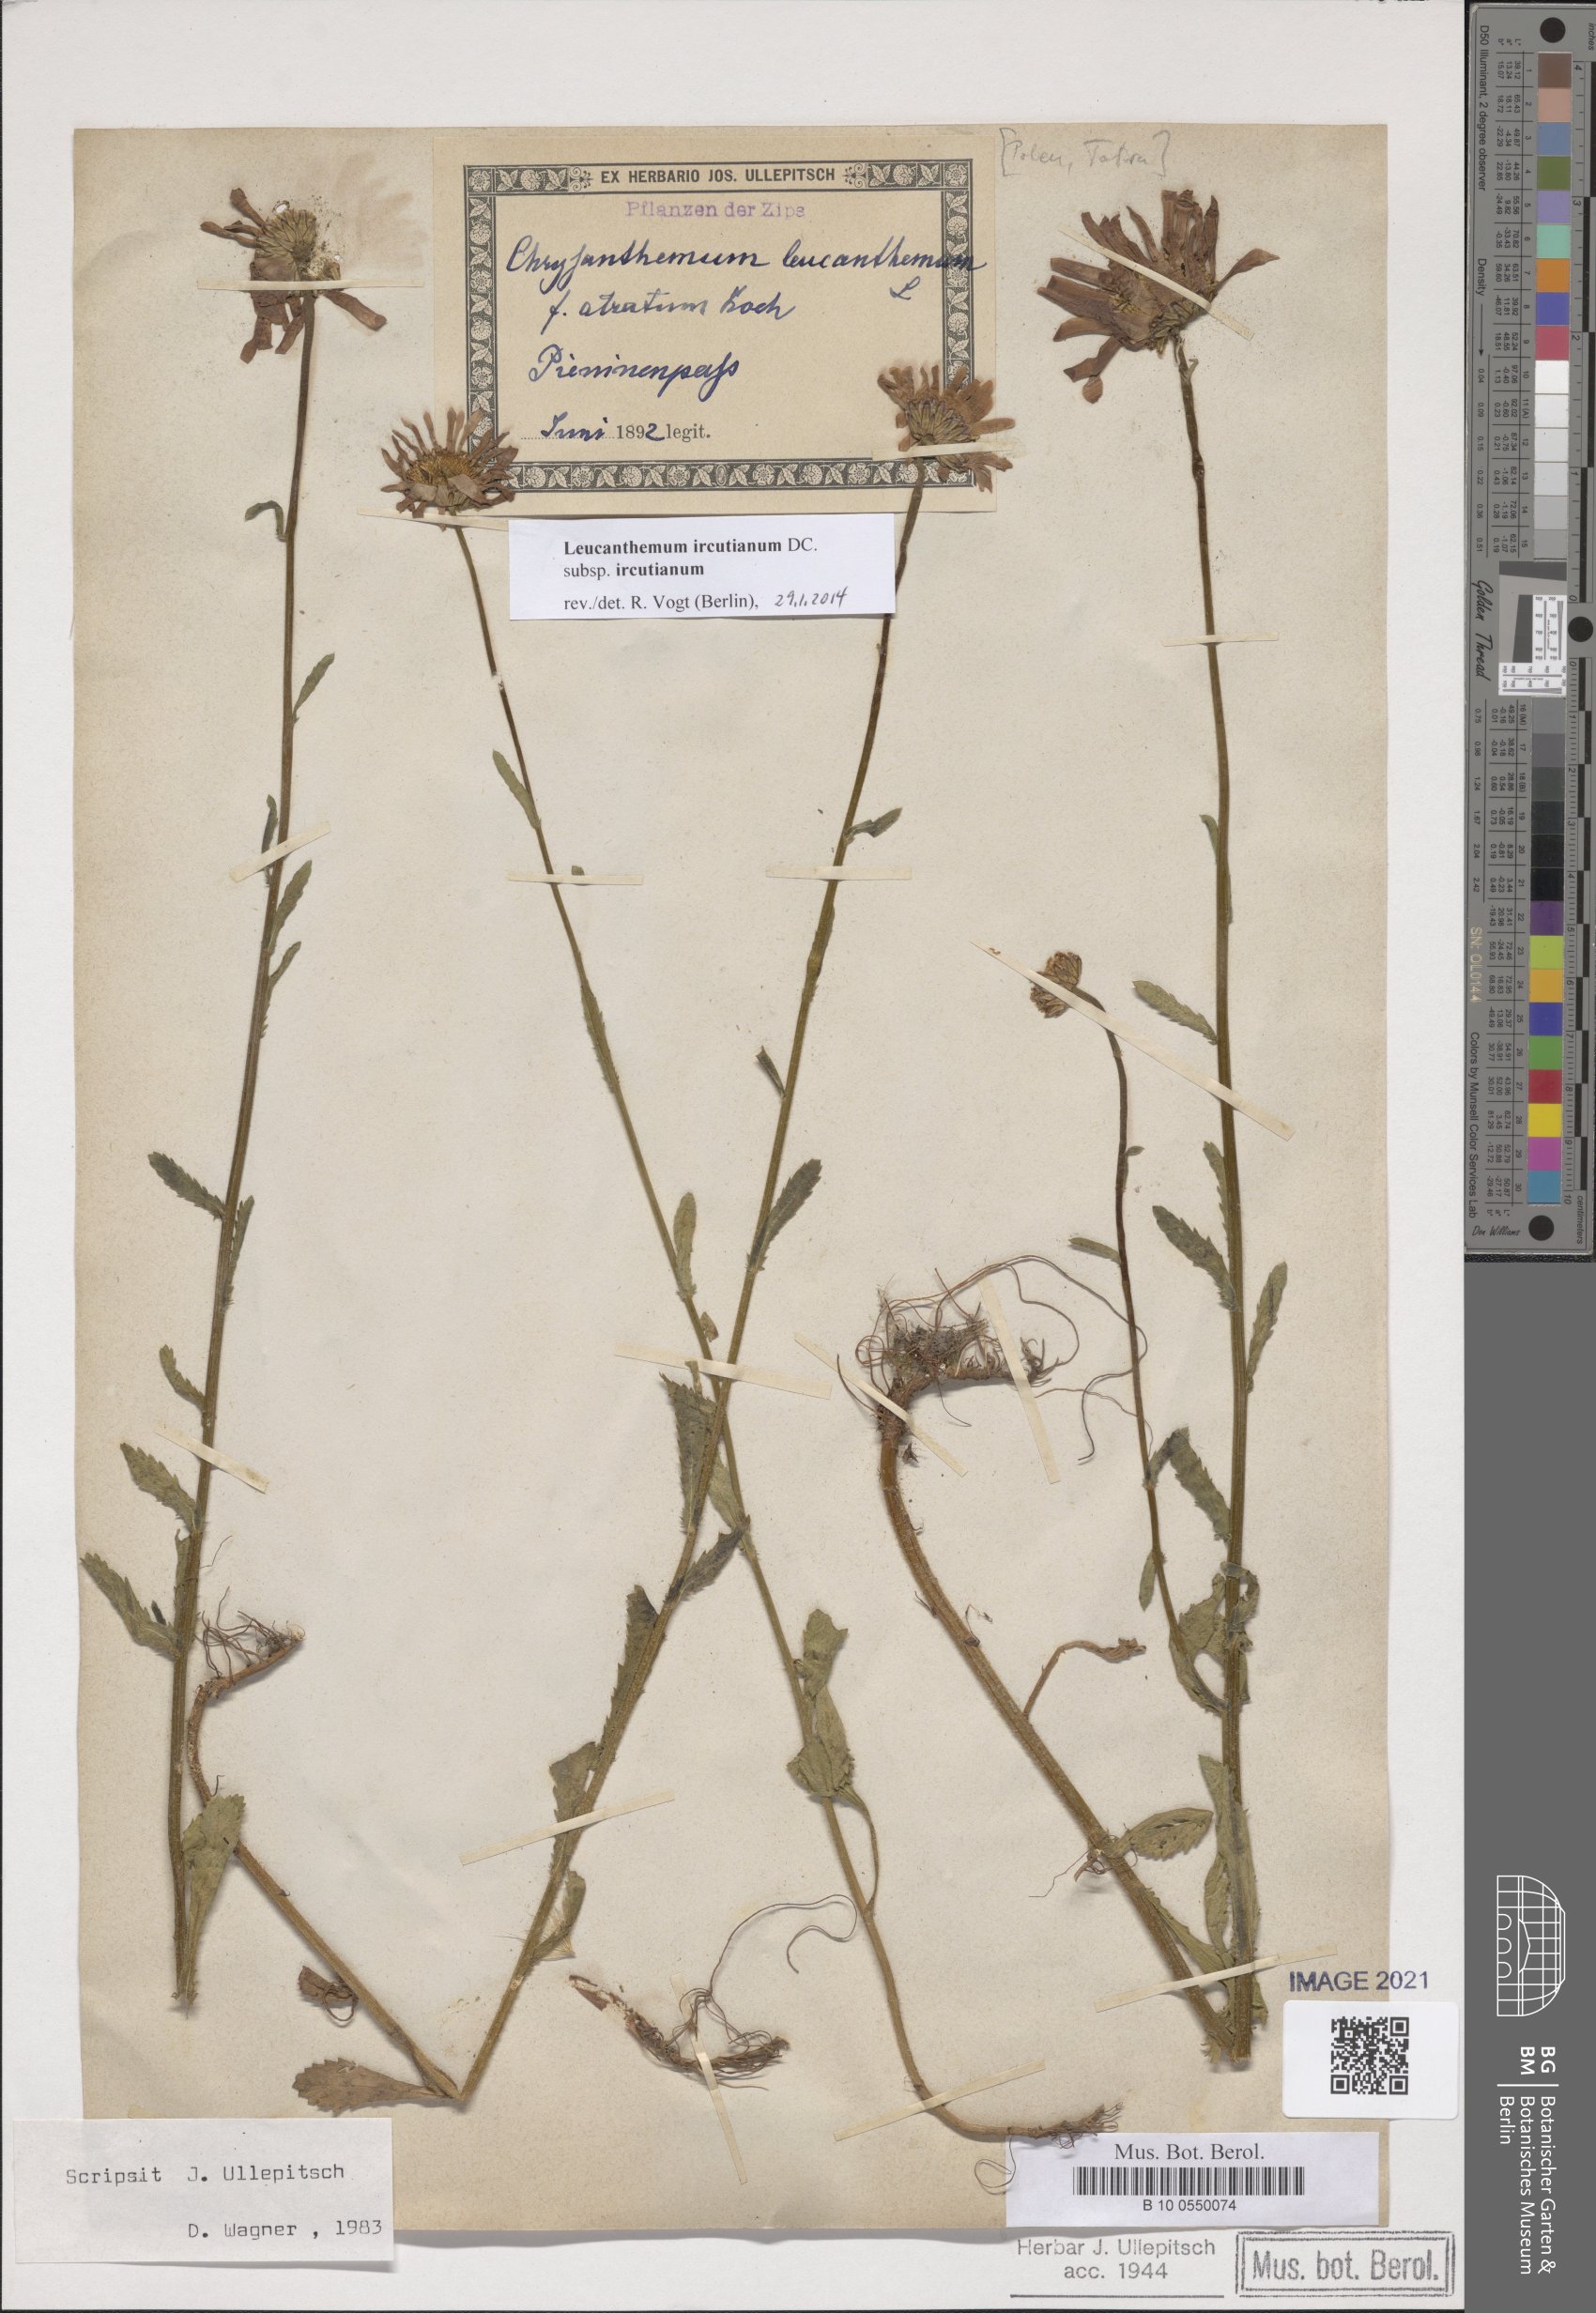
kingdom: Plantae
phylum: Tracheophyta
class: Magnoliopsida
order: Asterales
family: Asteraceae
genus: Leucanthemum
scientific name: Leucanthemum ircutianum
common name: Daisy
